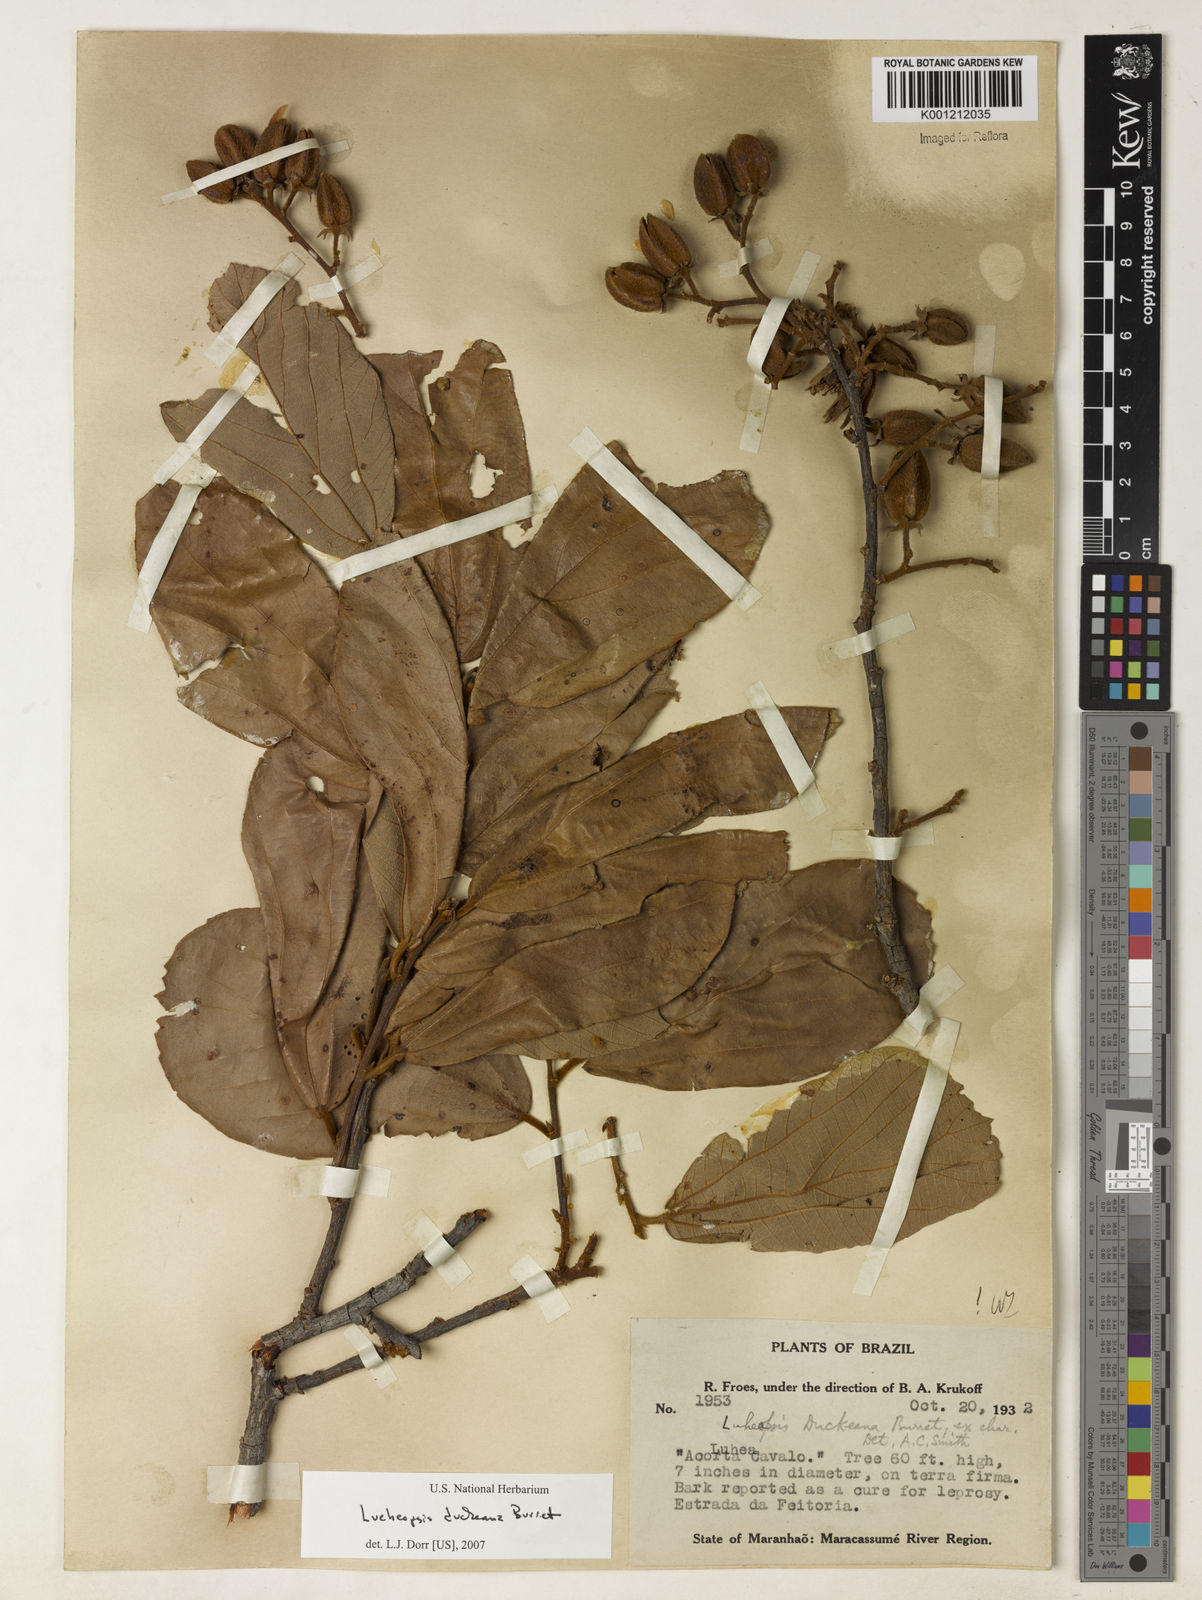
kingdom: Plantae
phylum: Tracheophyta
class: Magnoliopsida
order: Malvales
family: Malvaceae
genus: Lueheopsis
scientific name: Lueheopsis duckeana
